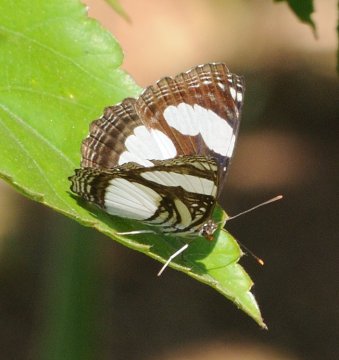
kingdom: Animalia
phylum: Arthropoda
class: Insecta
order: Lepidoptera
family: Nymphalidae
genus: Neptis
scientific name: Neptis serena
